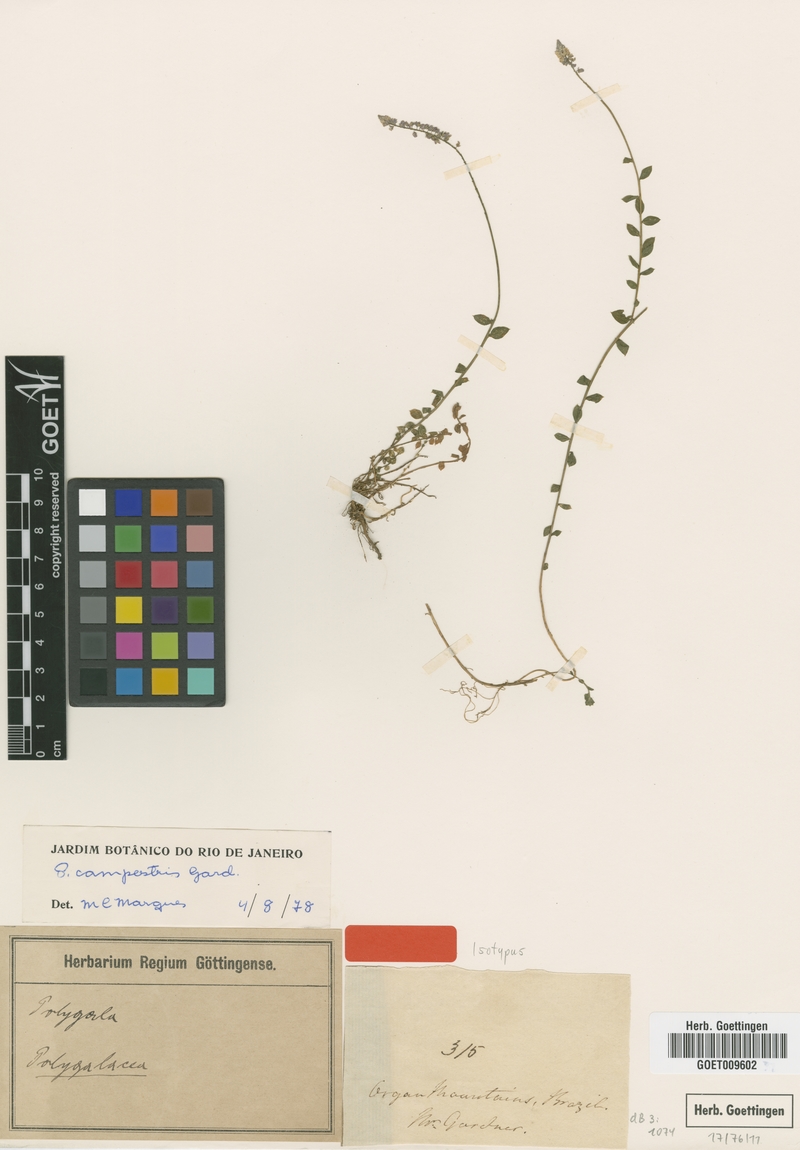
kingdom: Plantae
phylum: Tracheophyta
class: Magnoliopsida
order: Fabales
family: Polygalaceae
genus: Polygala
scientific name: Polygala campestris
